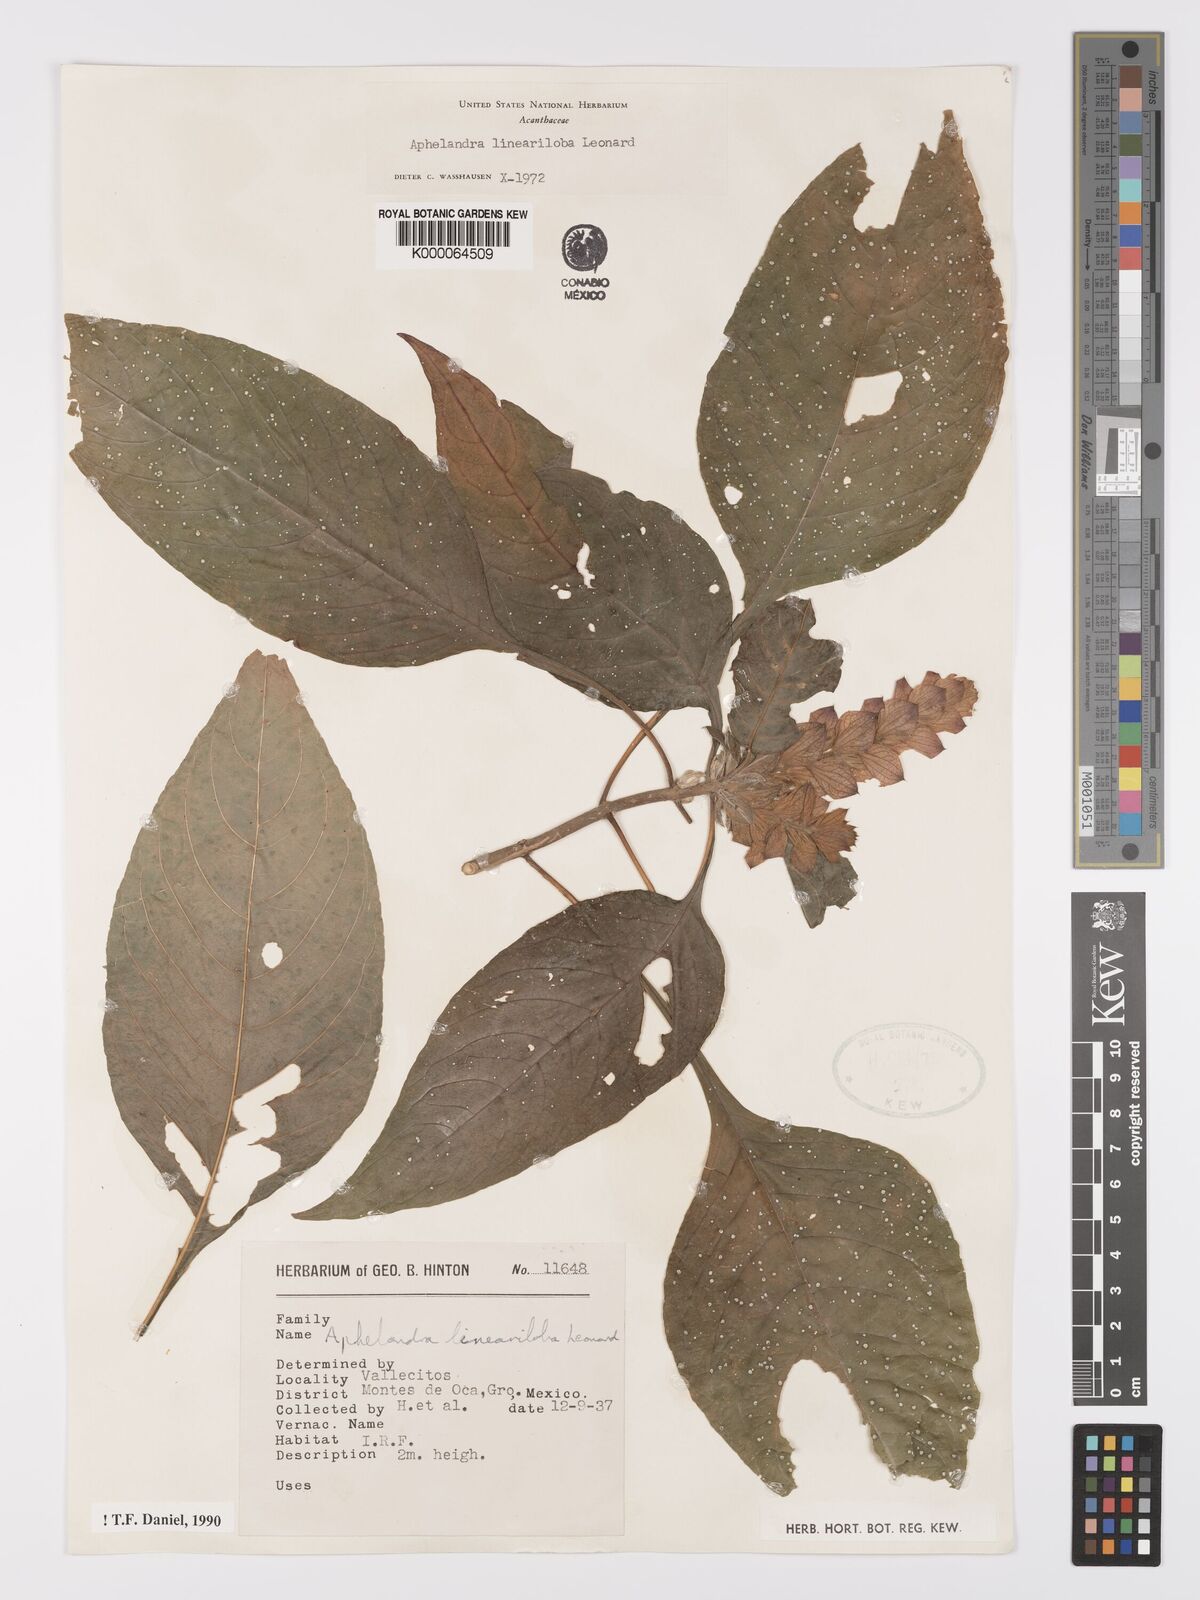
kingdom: Plantae
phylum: Tracheophyta
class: Magnoliopsida
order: Lamiales
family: Acanthaceae
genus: Aphelandra
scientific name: Aphelandra lineariloba
